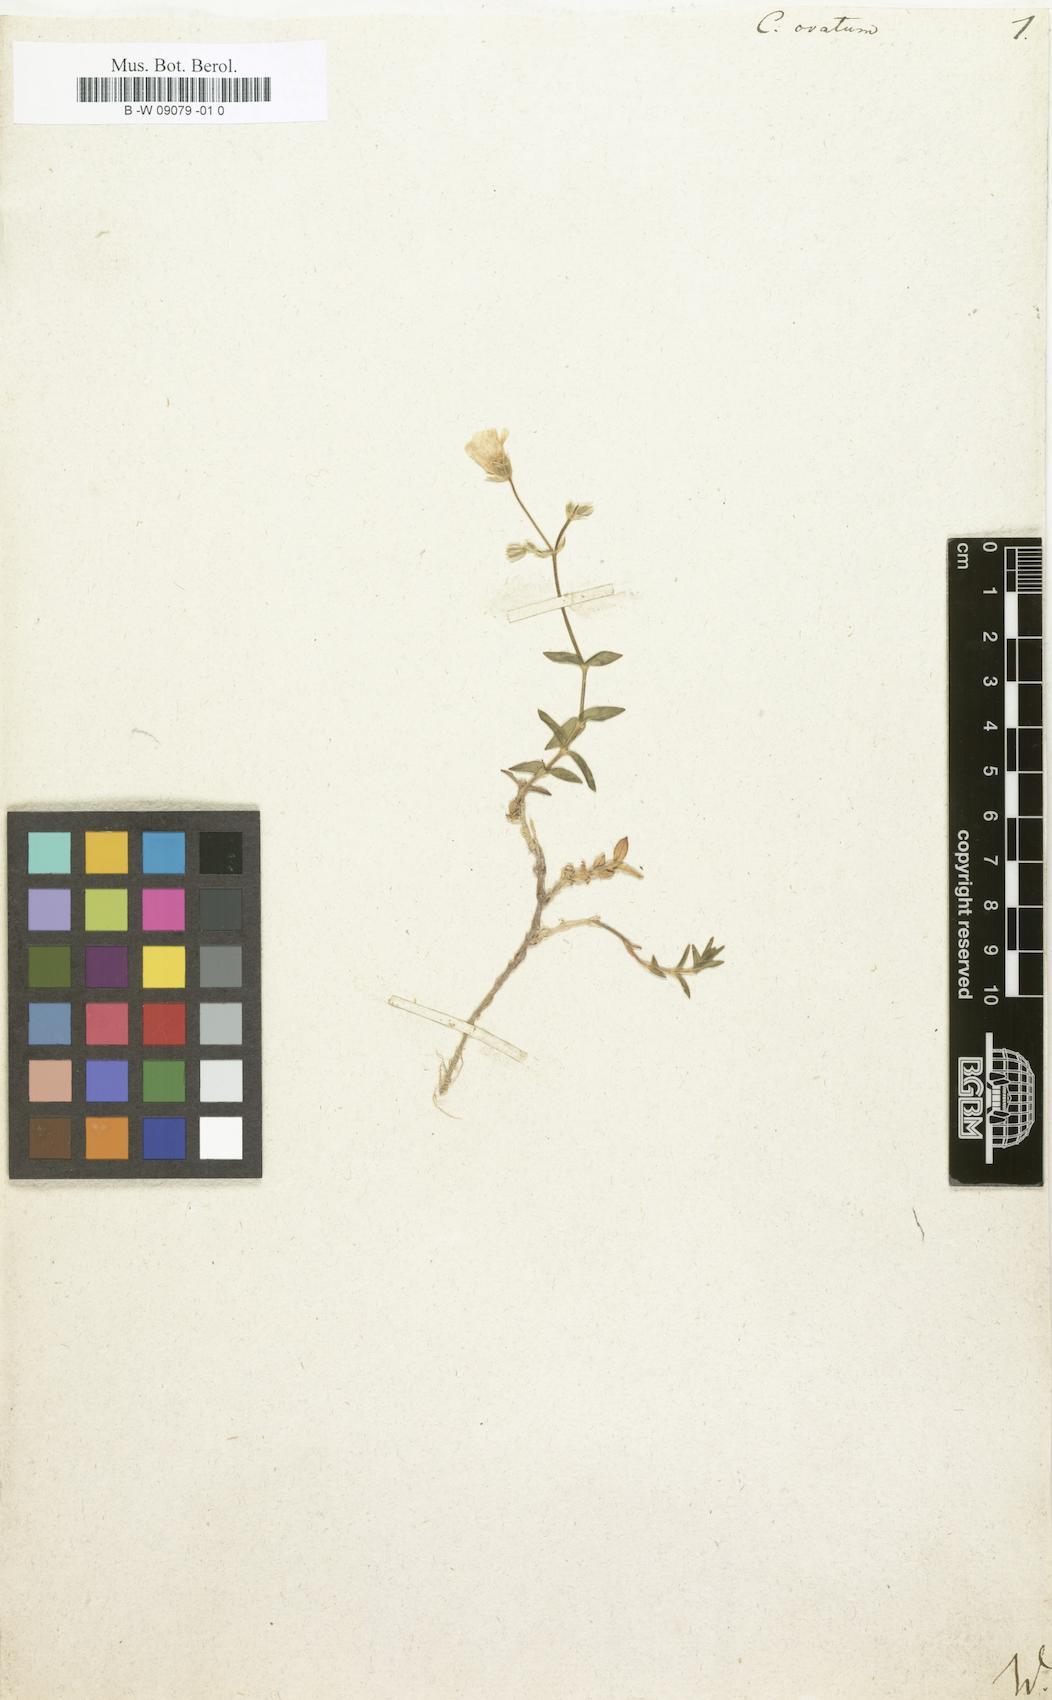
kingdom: Plantae
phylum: Tracheophyta
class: Magnoliopsida
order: Caryophyllales
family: Caryophyllaceae
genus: Cerastium
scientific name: Cerastium arvense
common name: Field mouse-ear
